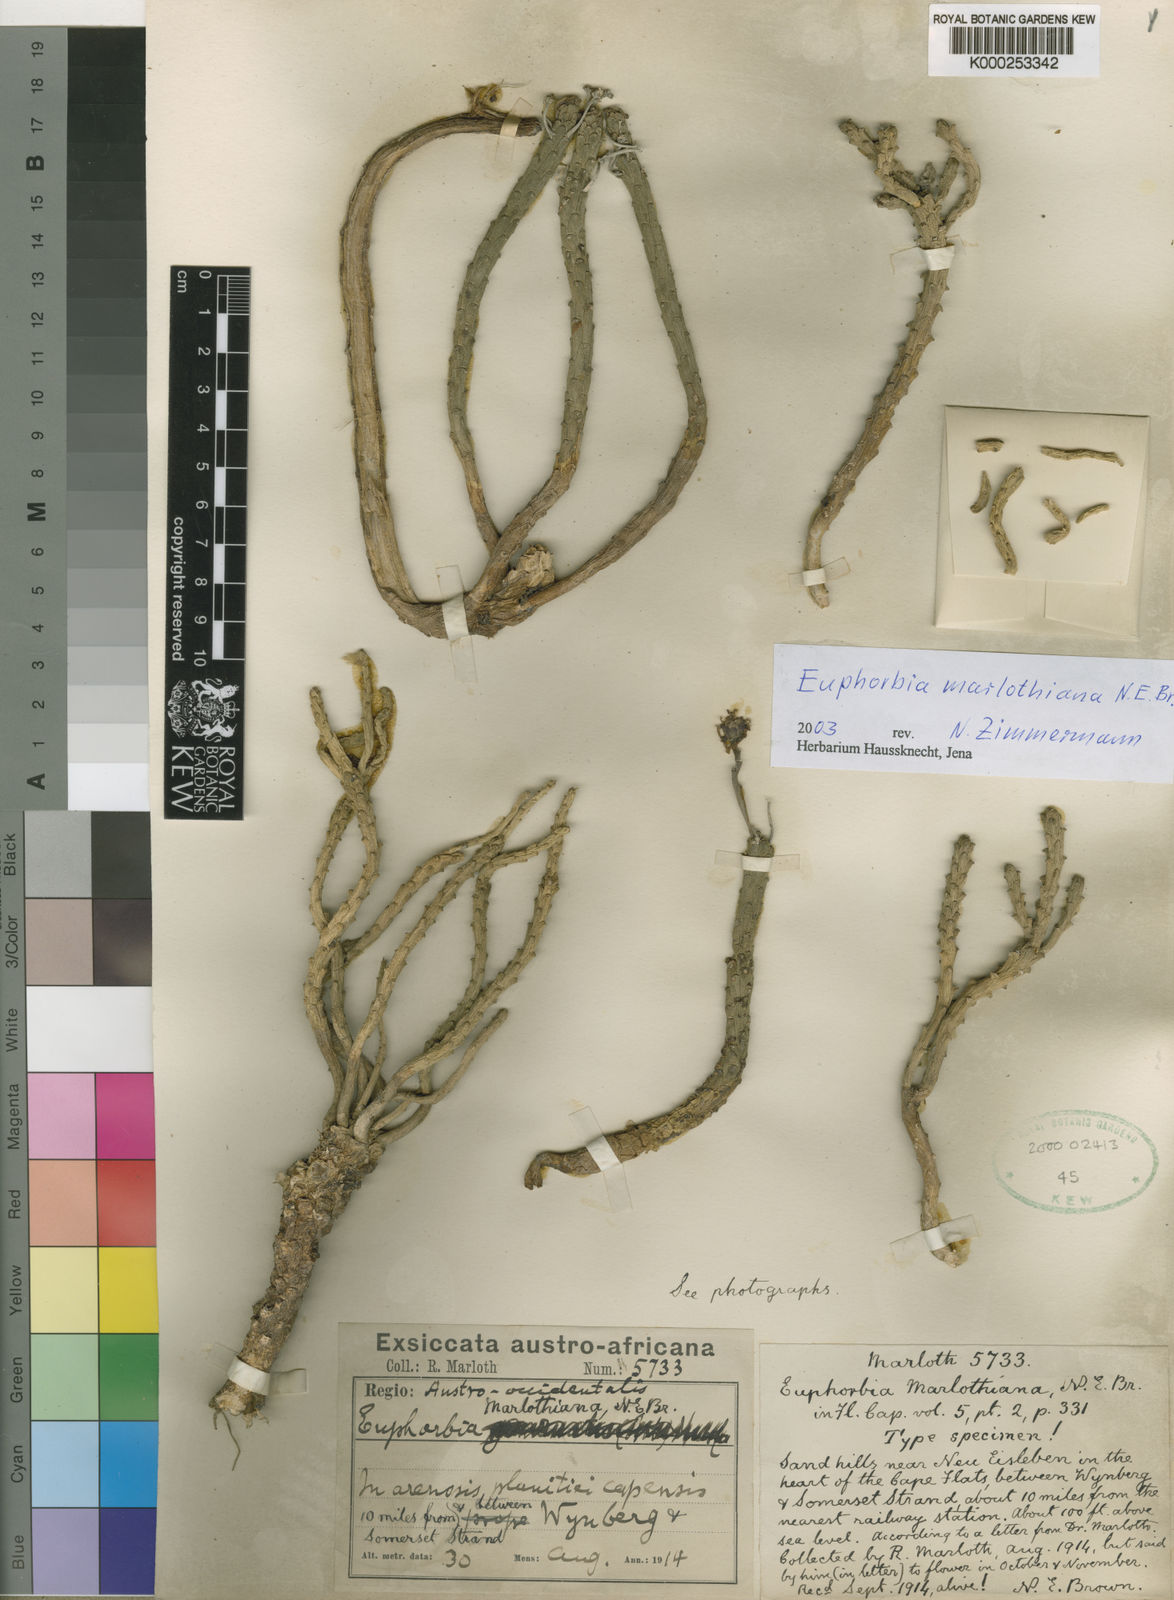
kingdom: Plantae
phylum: Tracheophyta
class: Magnoliopsida
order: Malpighiales
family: Euphorbiaceae
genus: Euphorbia
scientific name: Euphorbia caput-medusae
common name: Medusa's-head
